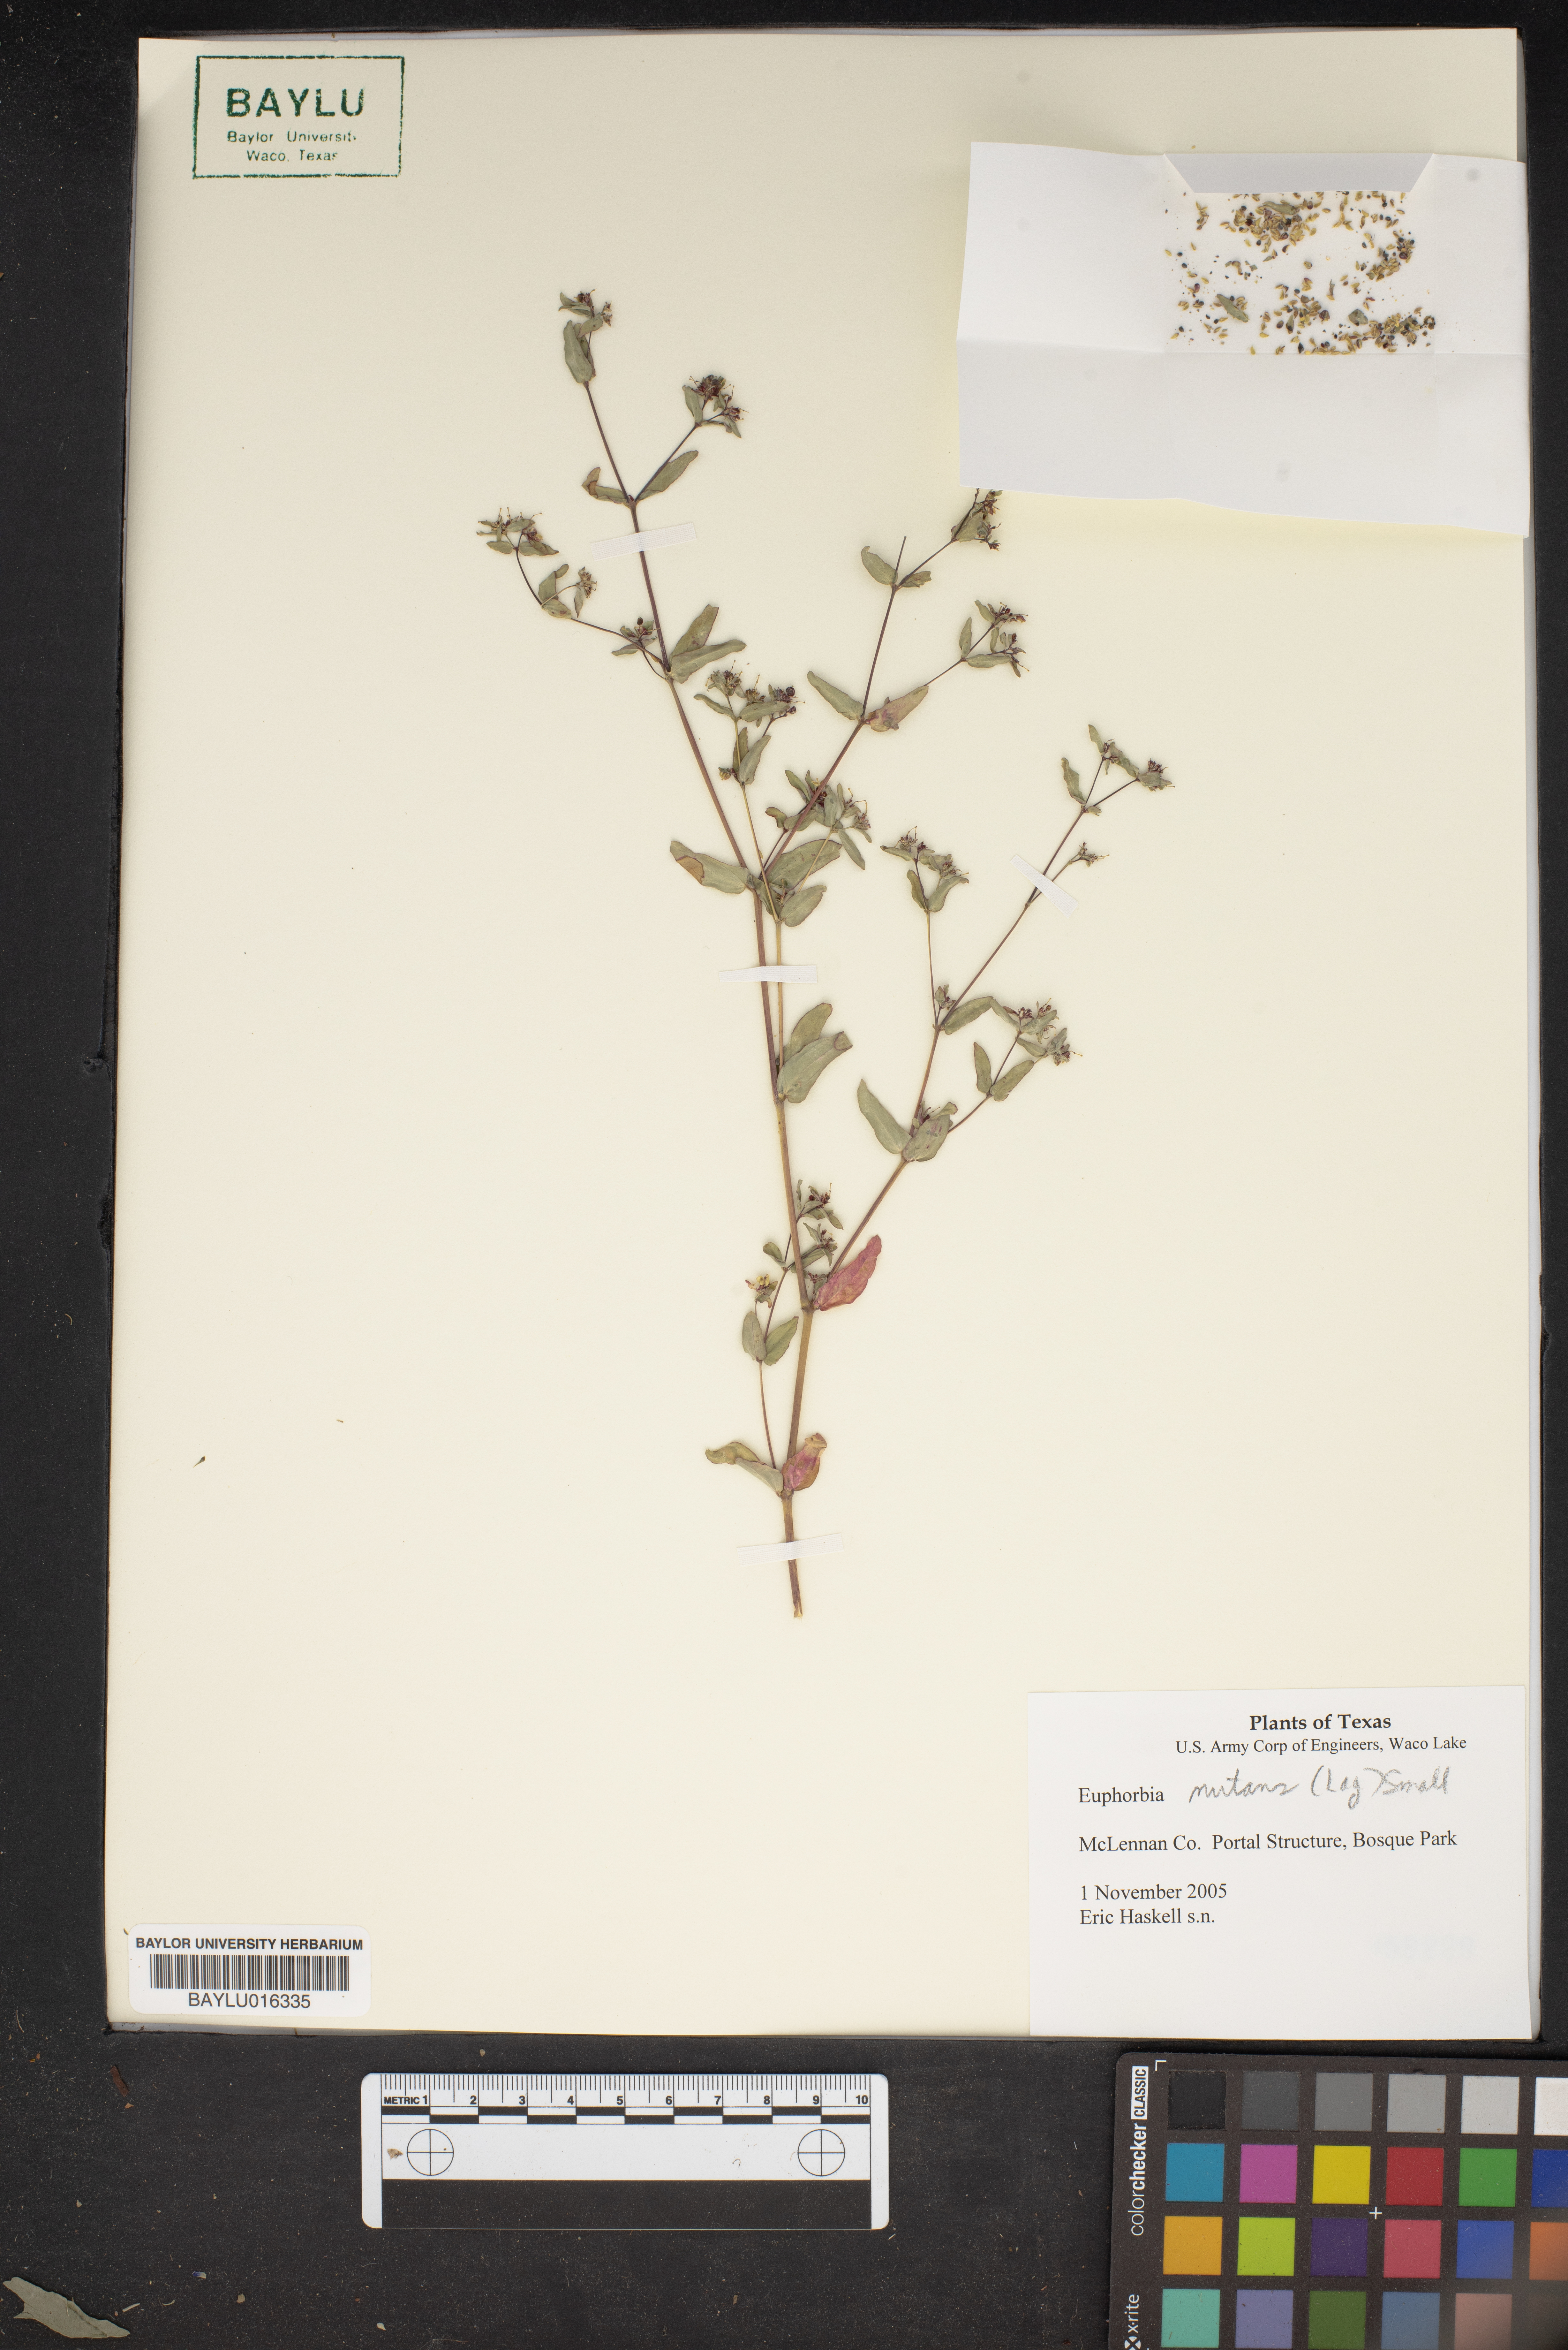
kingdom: Plantae
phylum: Tracheophyta
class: Magnoliopsida
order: Malpighiales
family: Euphorbiaceae
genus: Euphorbia
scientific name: Euphorbia nutans
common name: Eyebane
